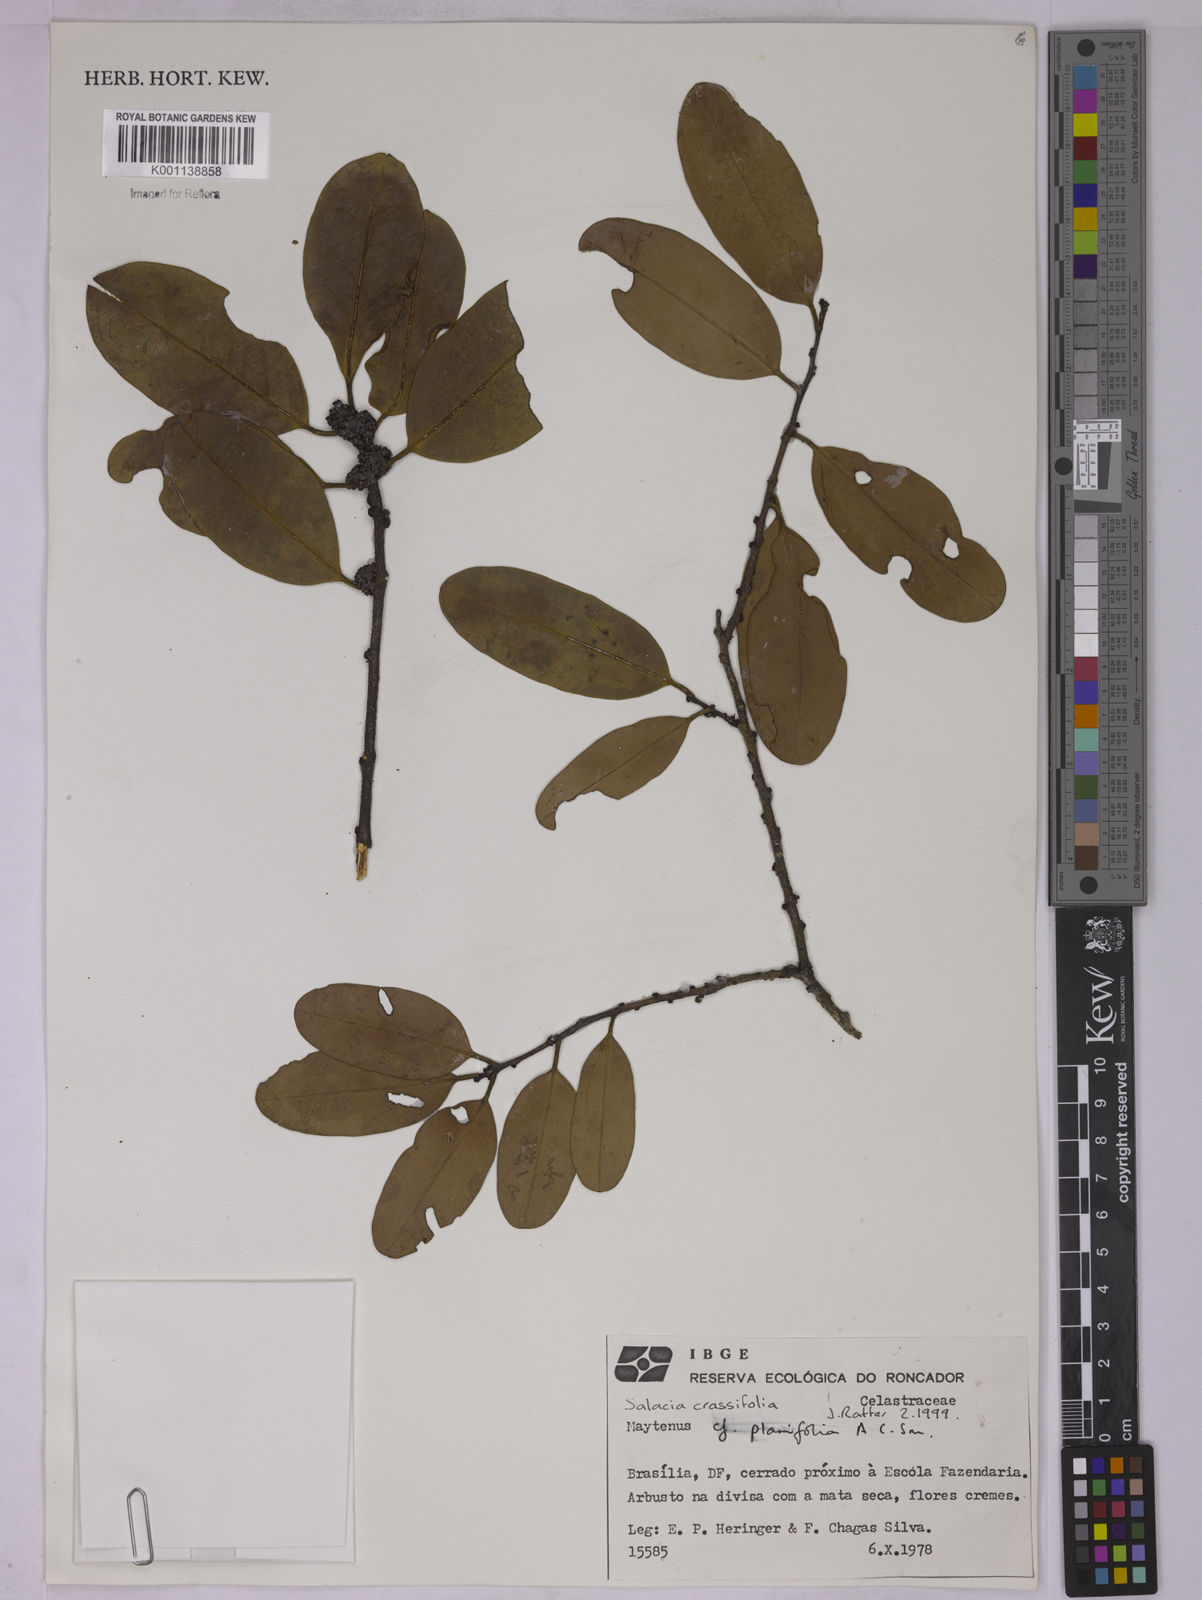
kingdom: Plantae
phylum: Tracheophyta
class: Magnoliopsida
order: Celastrales
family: Celastraceae
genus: Salacia
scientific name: Salacia crassifolia
